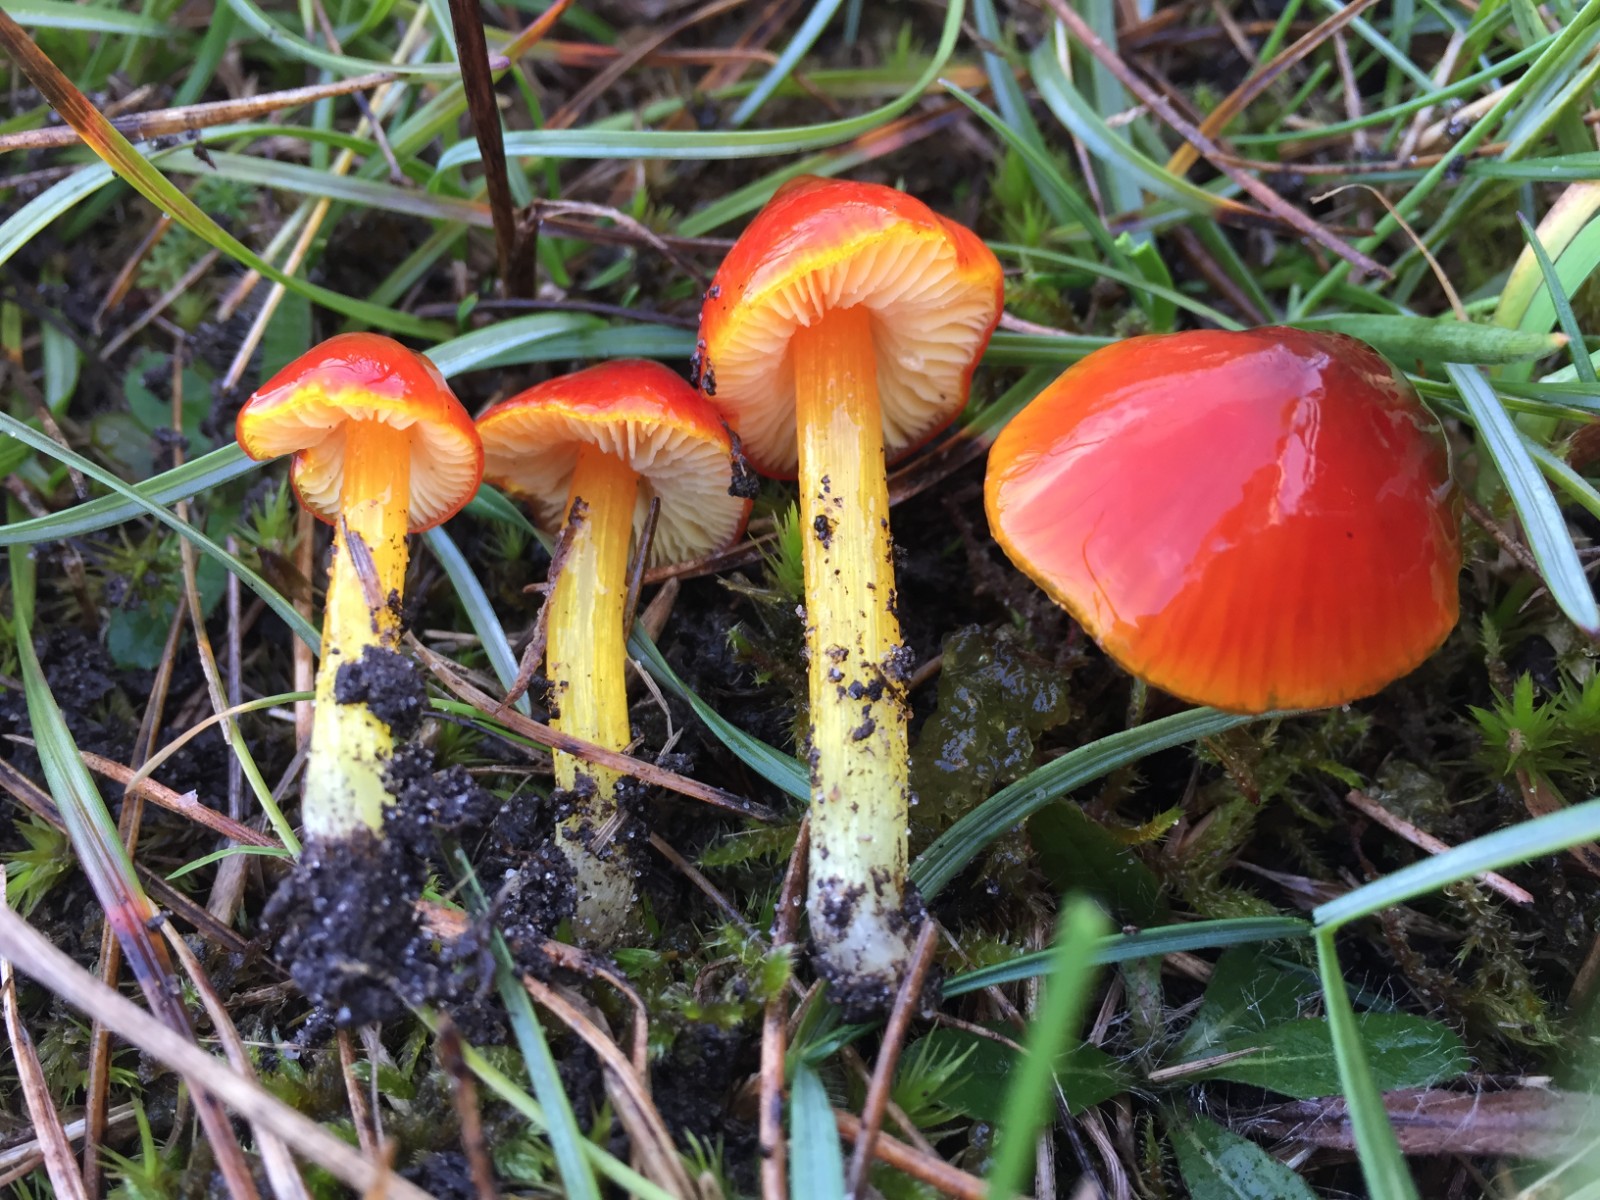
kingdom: Fungi
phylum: Basidiomycota
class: Agaricomycetes
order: Agaricales
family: Hygrophoraceae
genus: Hygrocybe
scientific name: Hygrocybe conica
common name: kegle-vokshat
